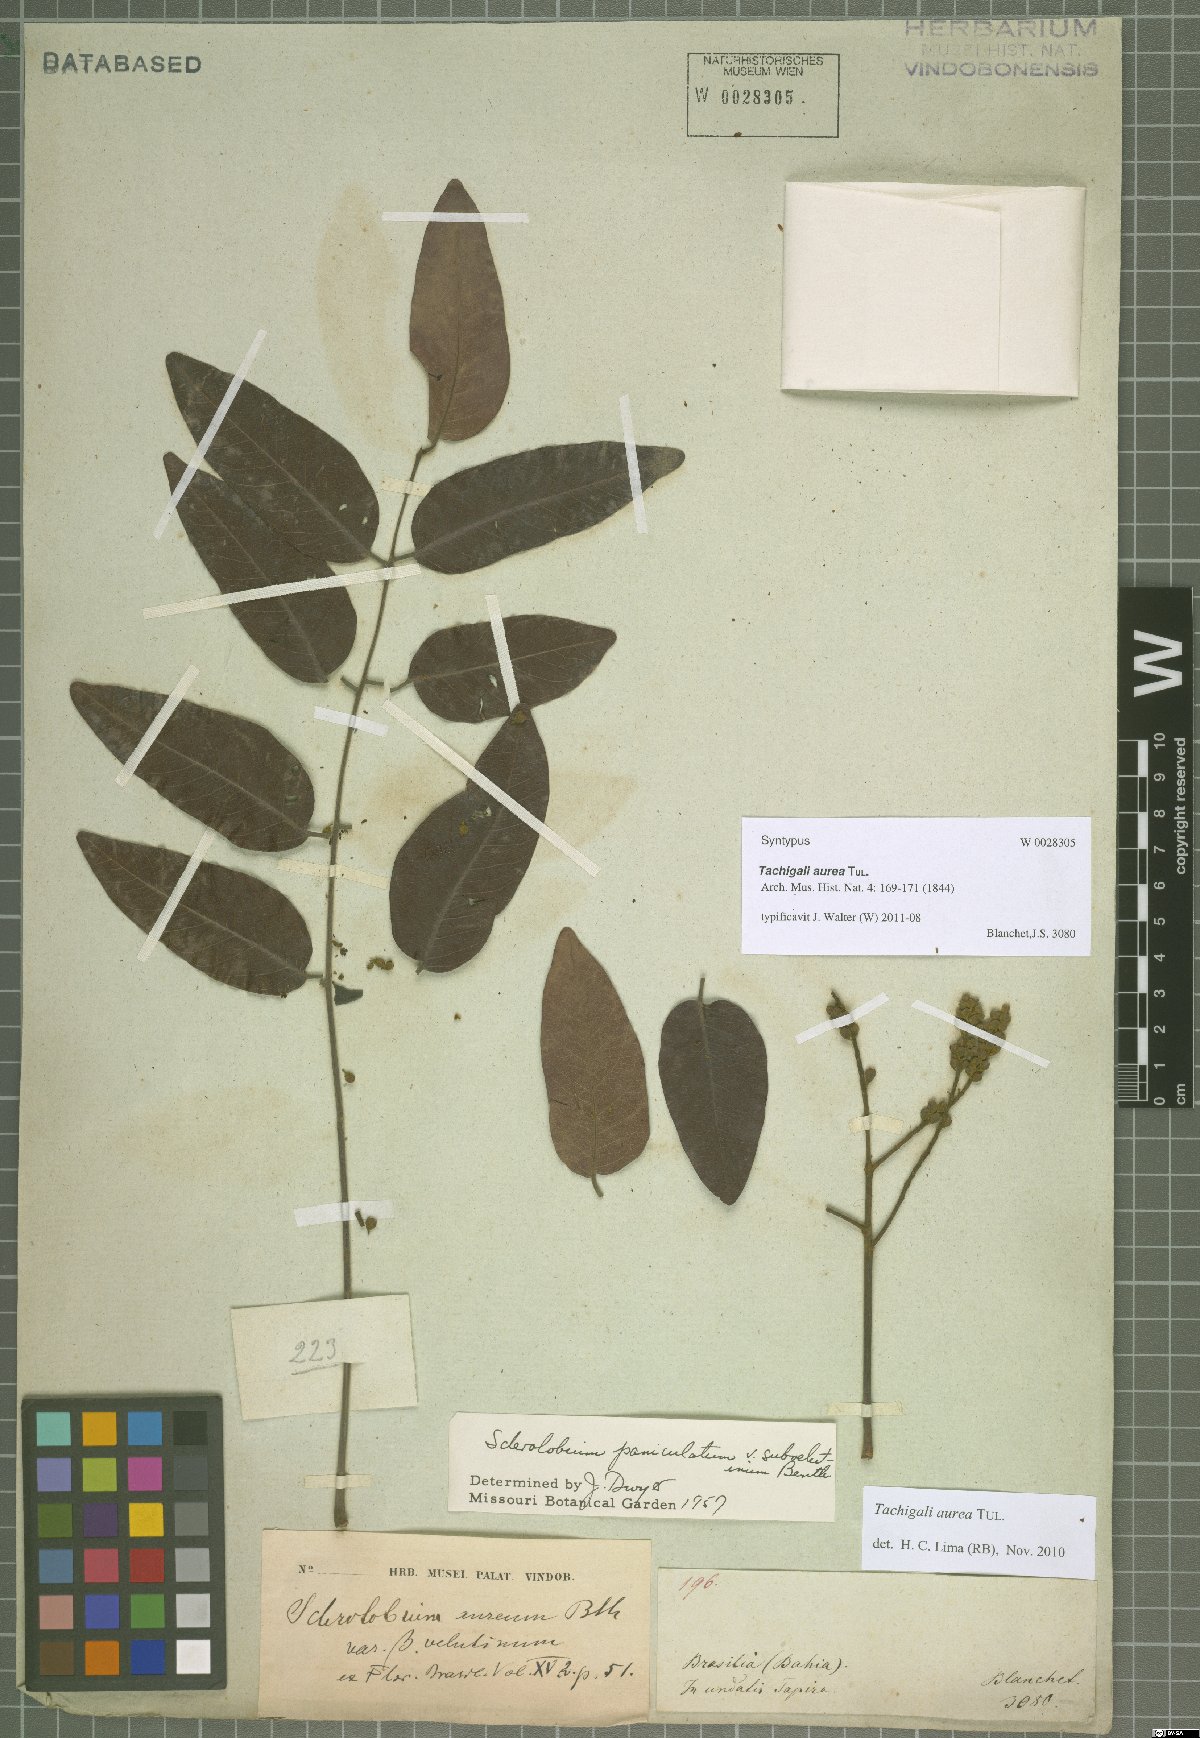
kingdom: Plantae
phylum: Tracheophyta
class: Magnoliopsida
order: Fabales
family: Fabaceae
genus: Tachigali
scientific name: Tachigali aurea
